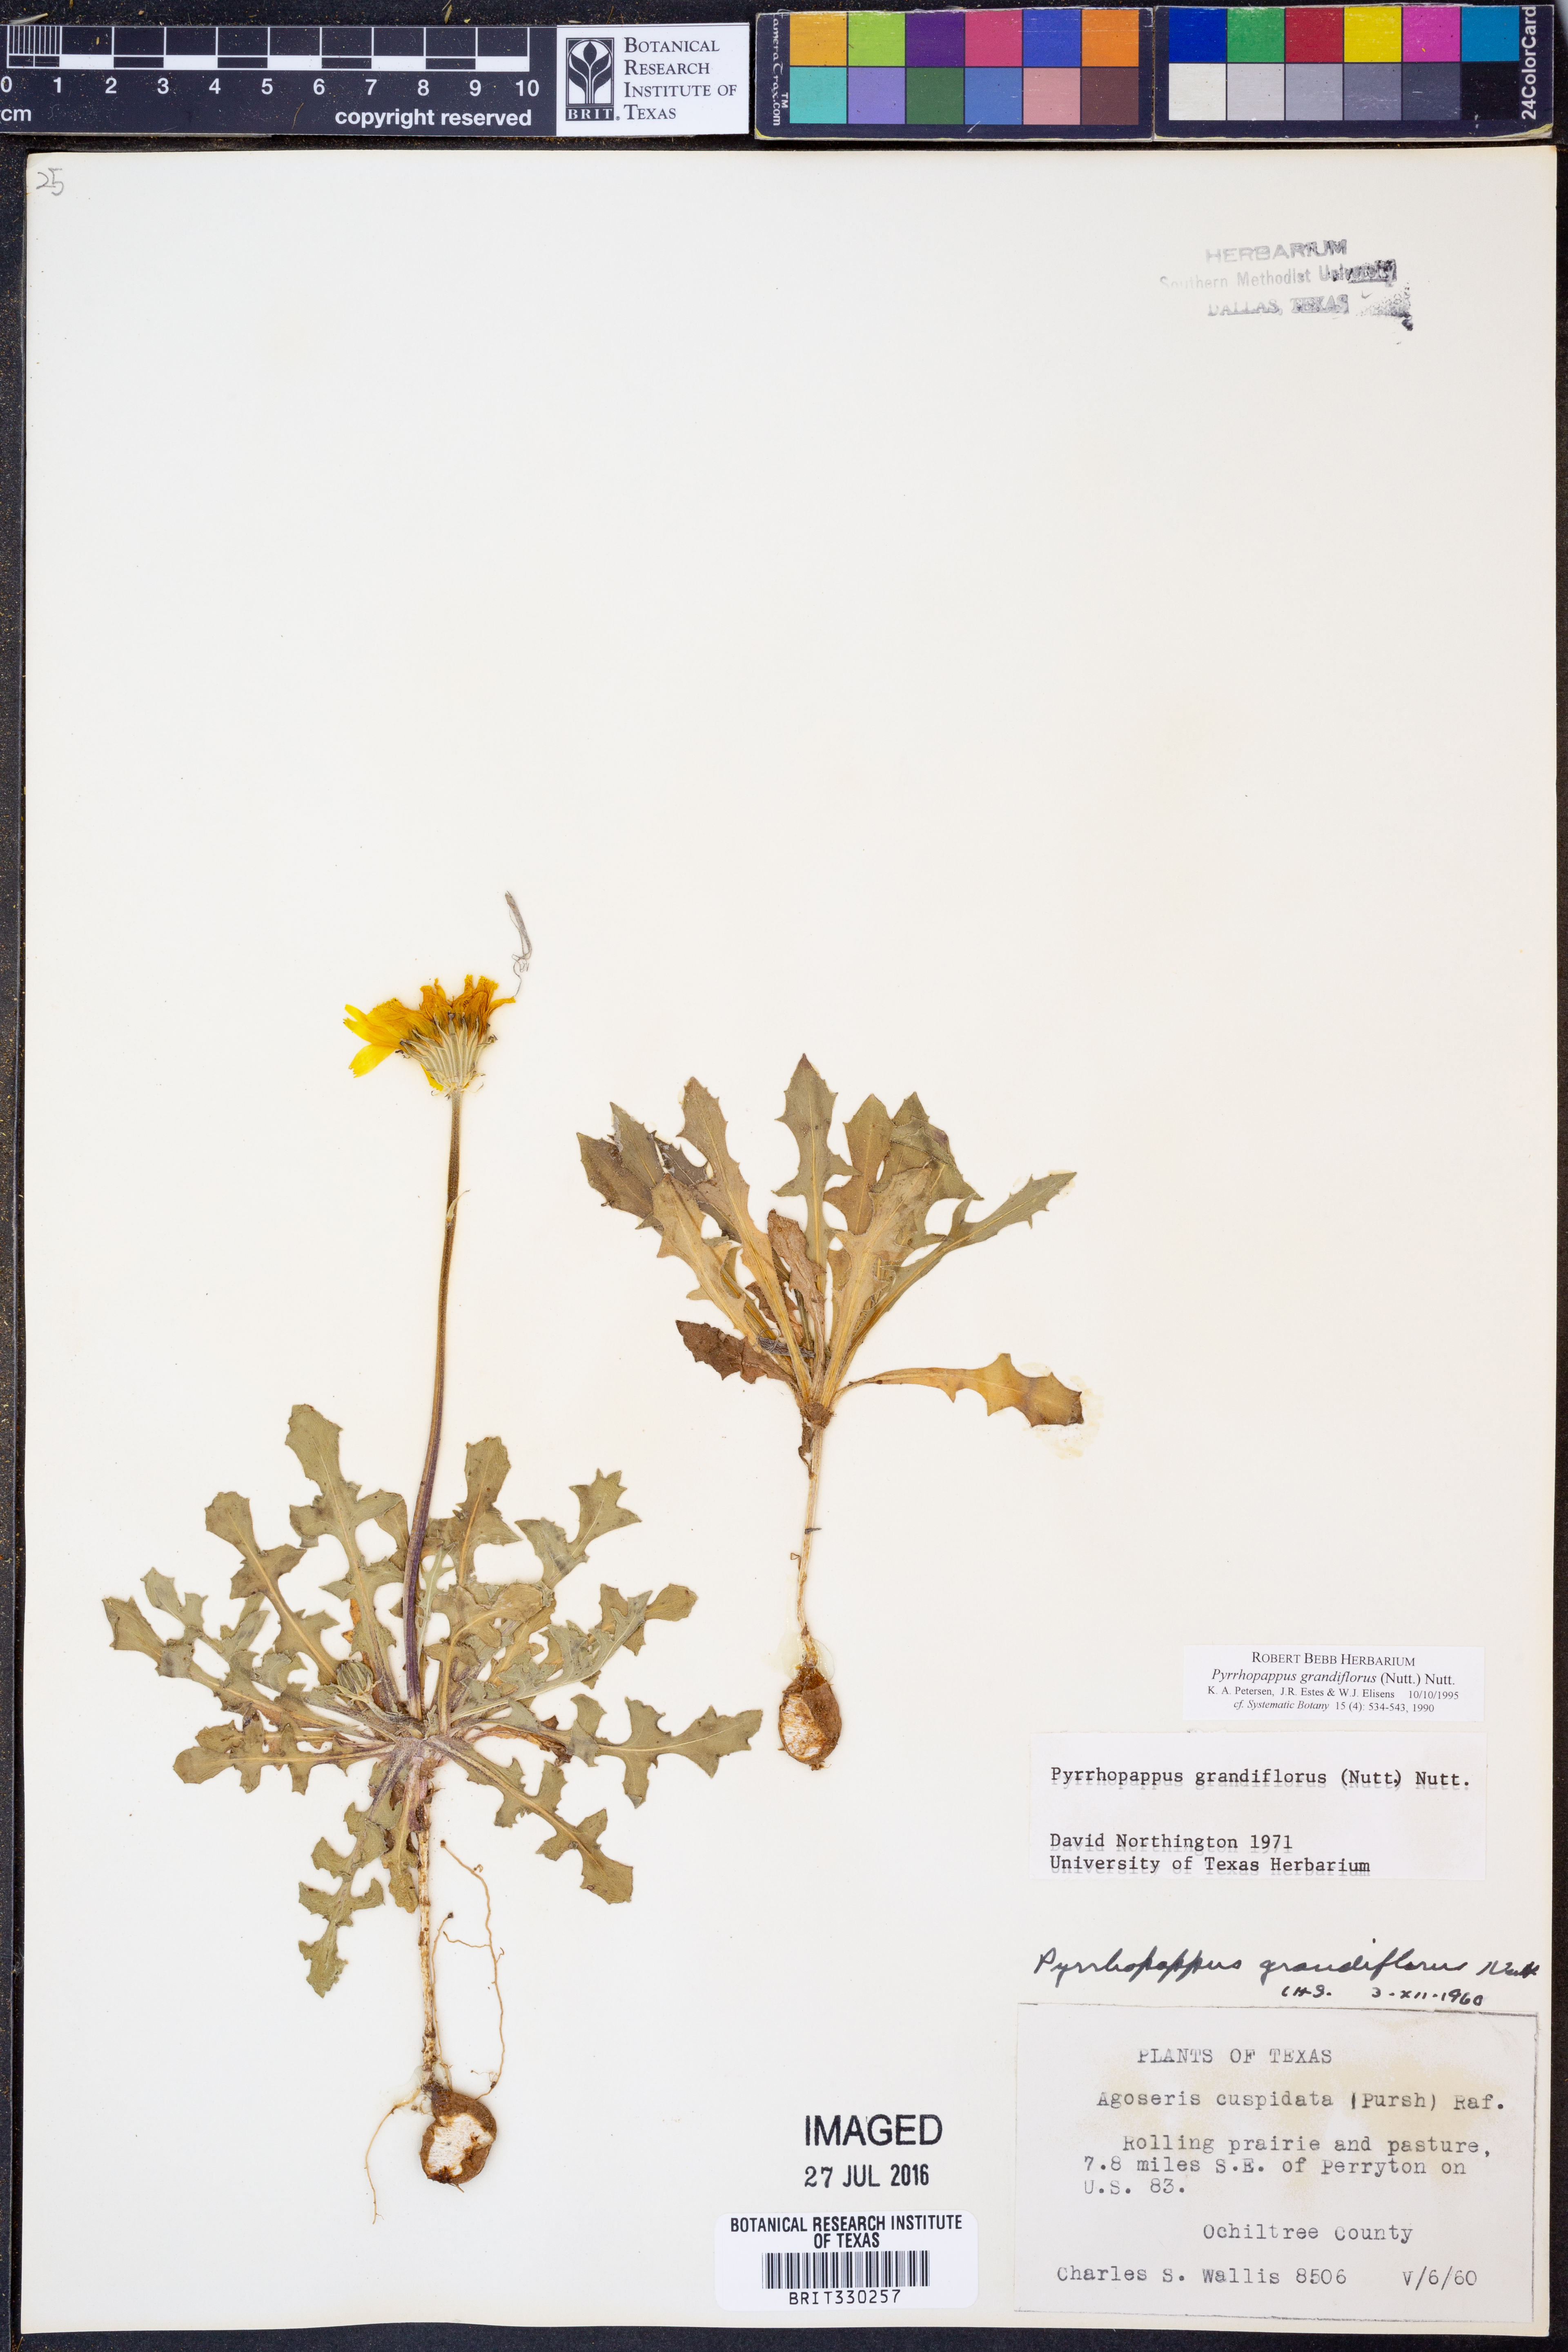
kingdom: Plantae
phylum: Tracheophyta
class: Magnoliopsida
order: Asterales
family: Asteraceae
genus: Pyrrhopappus
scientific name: Pyrrhopappus grandiflorus
